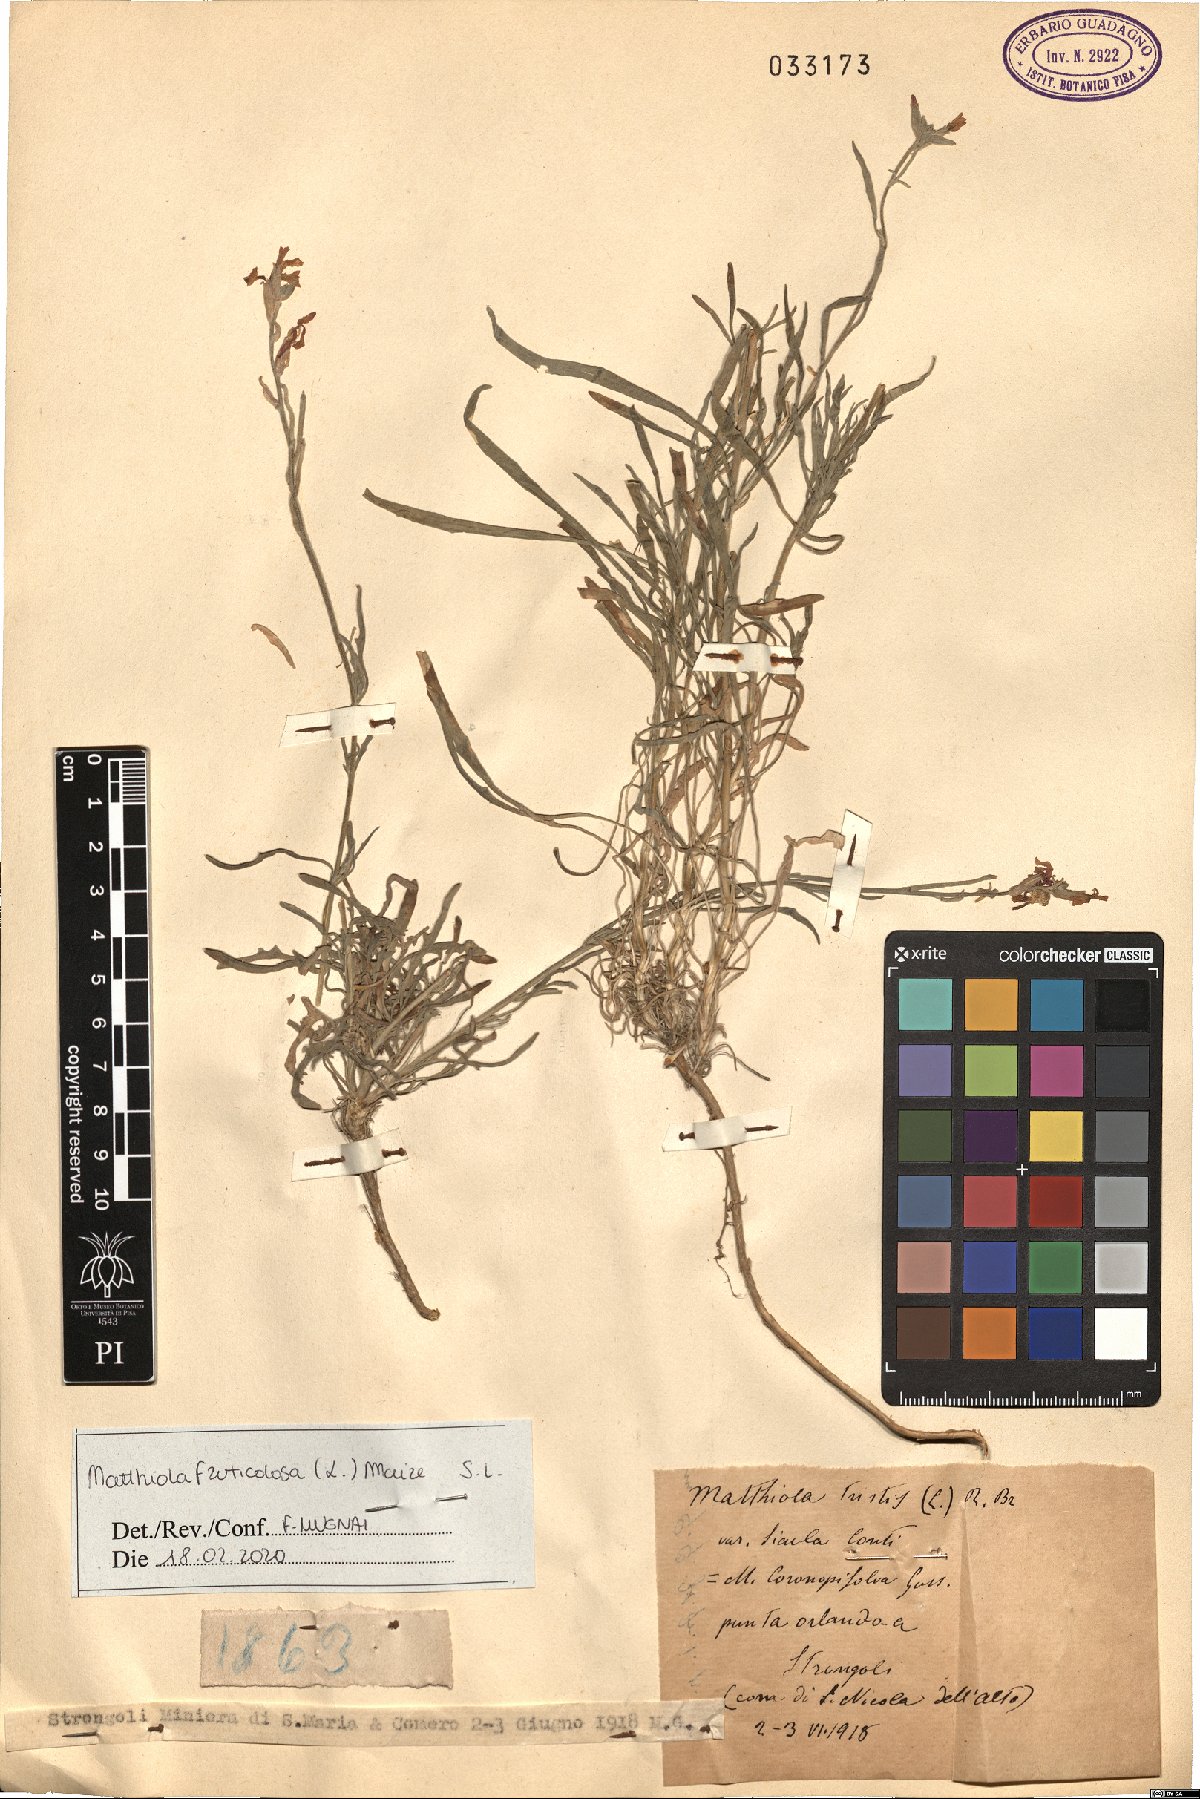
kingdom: Plantae
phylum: Tracheophyta
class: Magnoliopsida
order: Brassicales
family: Brassicaceae
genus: Matthiola
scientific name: Matthiola fruticulosa
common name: Sad stock
